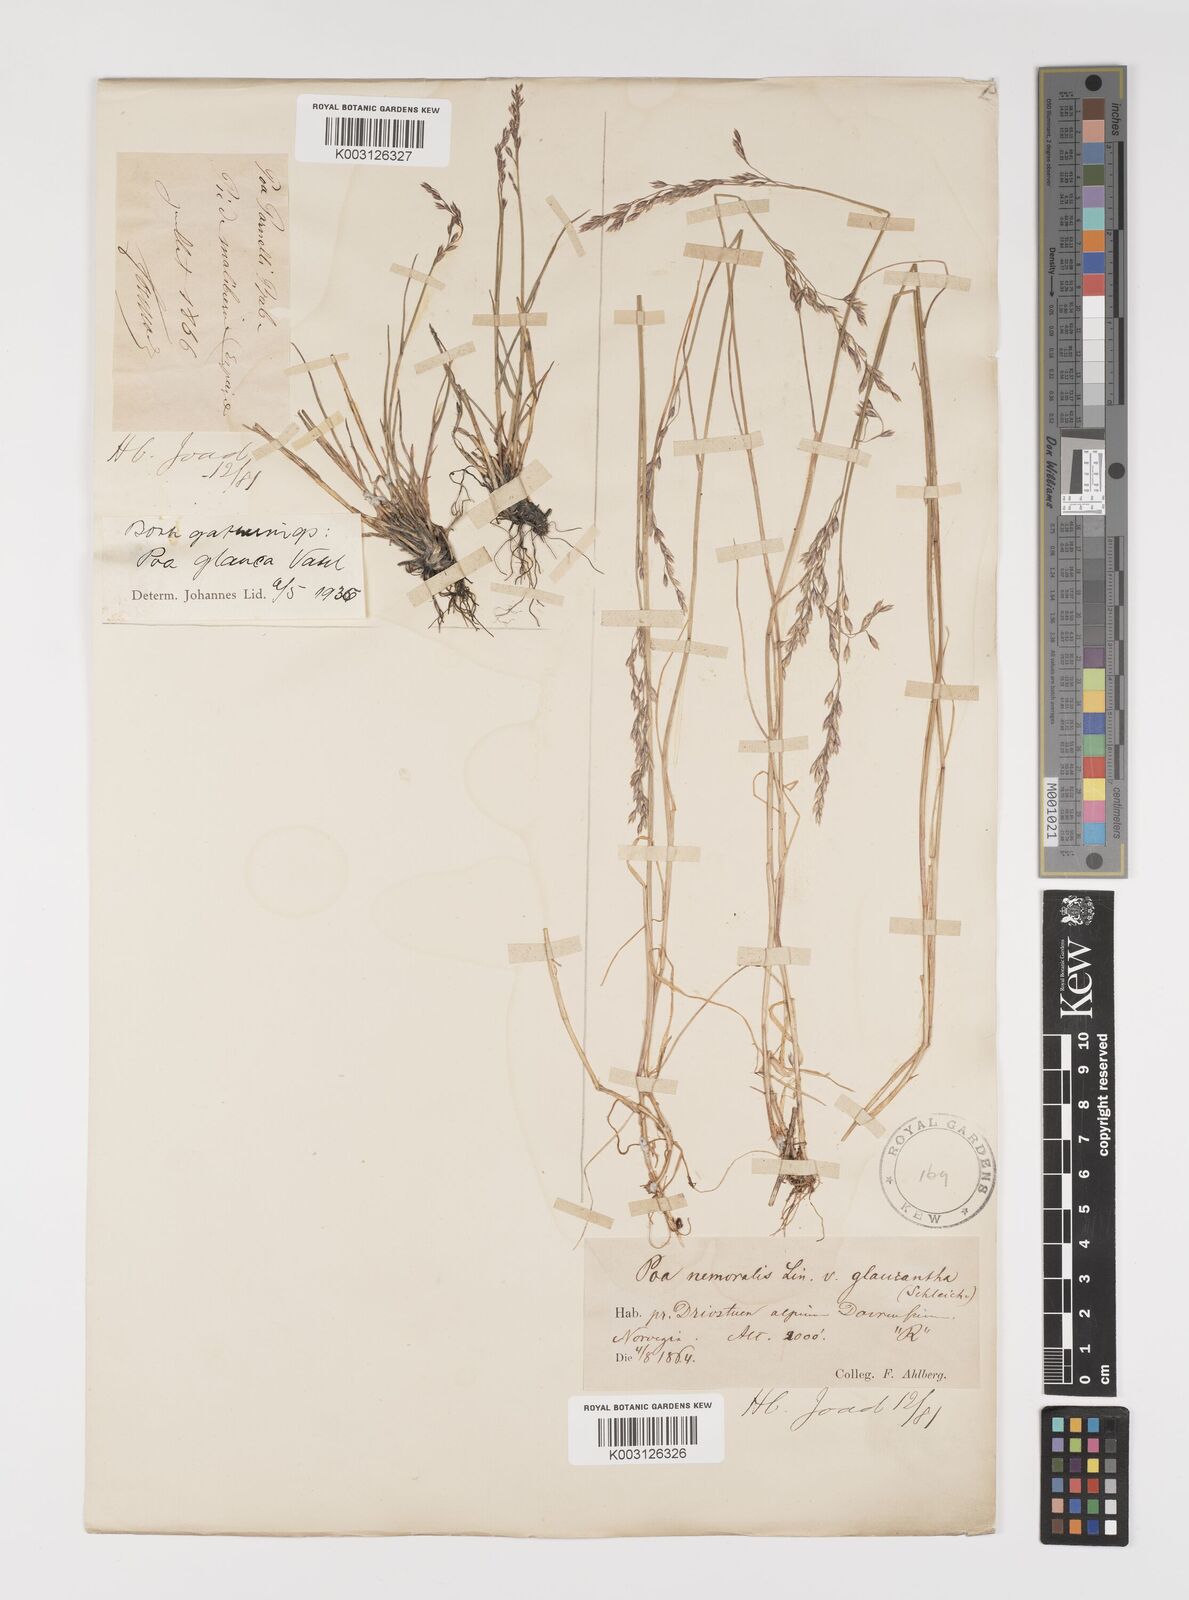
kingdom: Plantae
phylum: Tracheophyta
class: Liliopsida
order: Poales
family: Poaceae
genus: Poa
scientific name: Poa glauca
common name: Glaucous bluegrass
